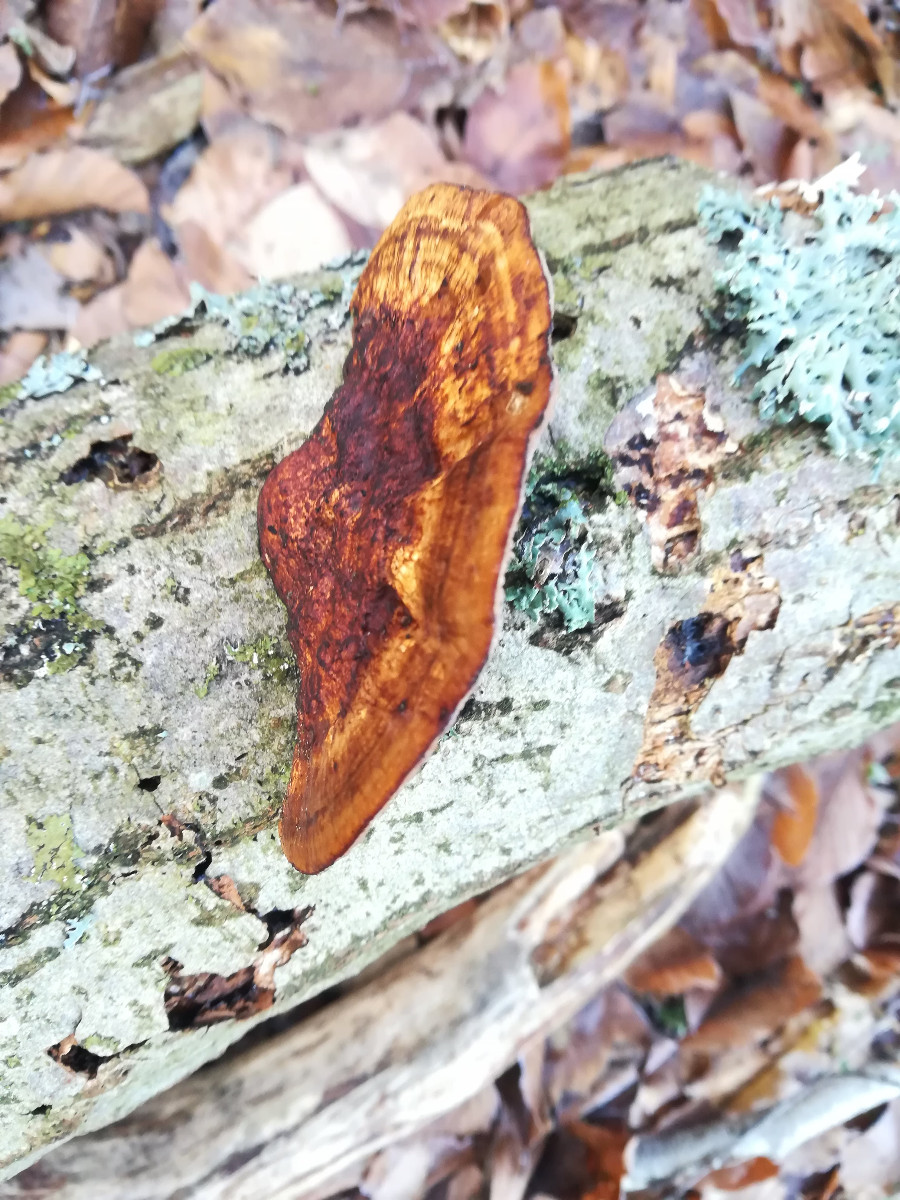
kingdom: Fungi
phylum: Basidiomycota
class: Agaricomycetes
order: Polyporales
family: Polyporaceae
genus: Daedaleopsis
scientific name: Daedaleopsis confragosa
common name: rødmende læderporesvamp
